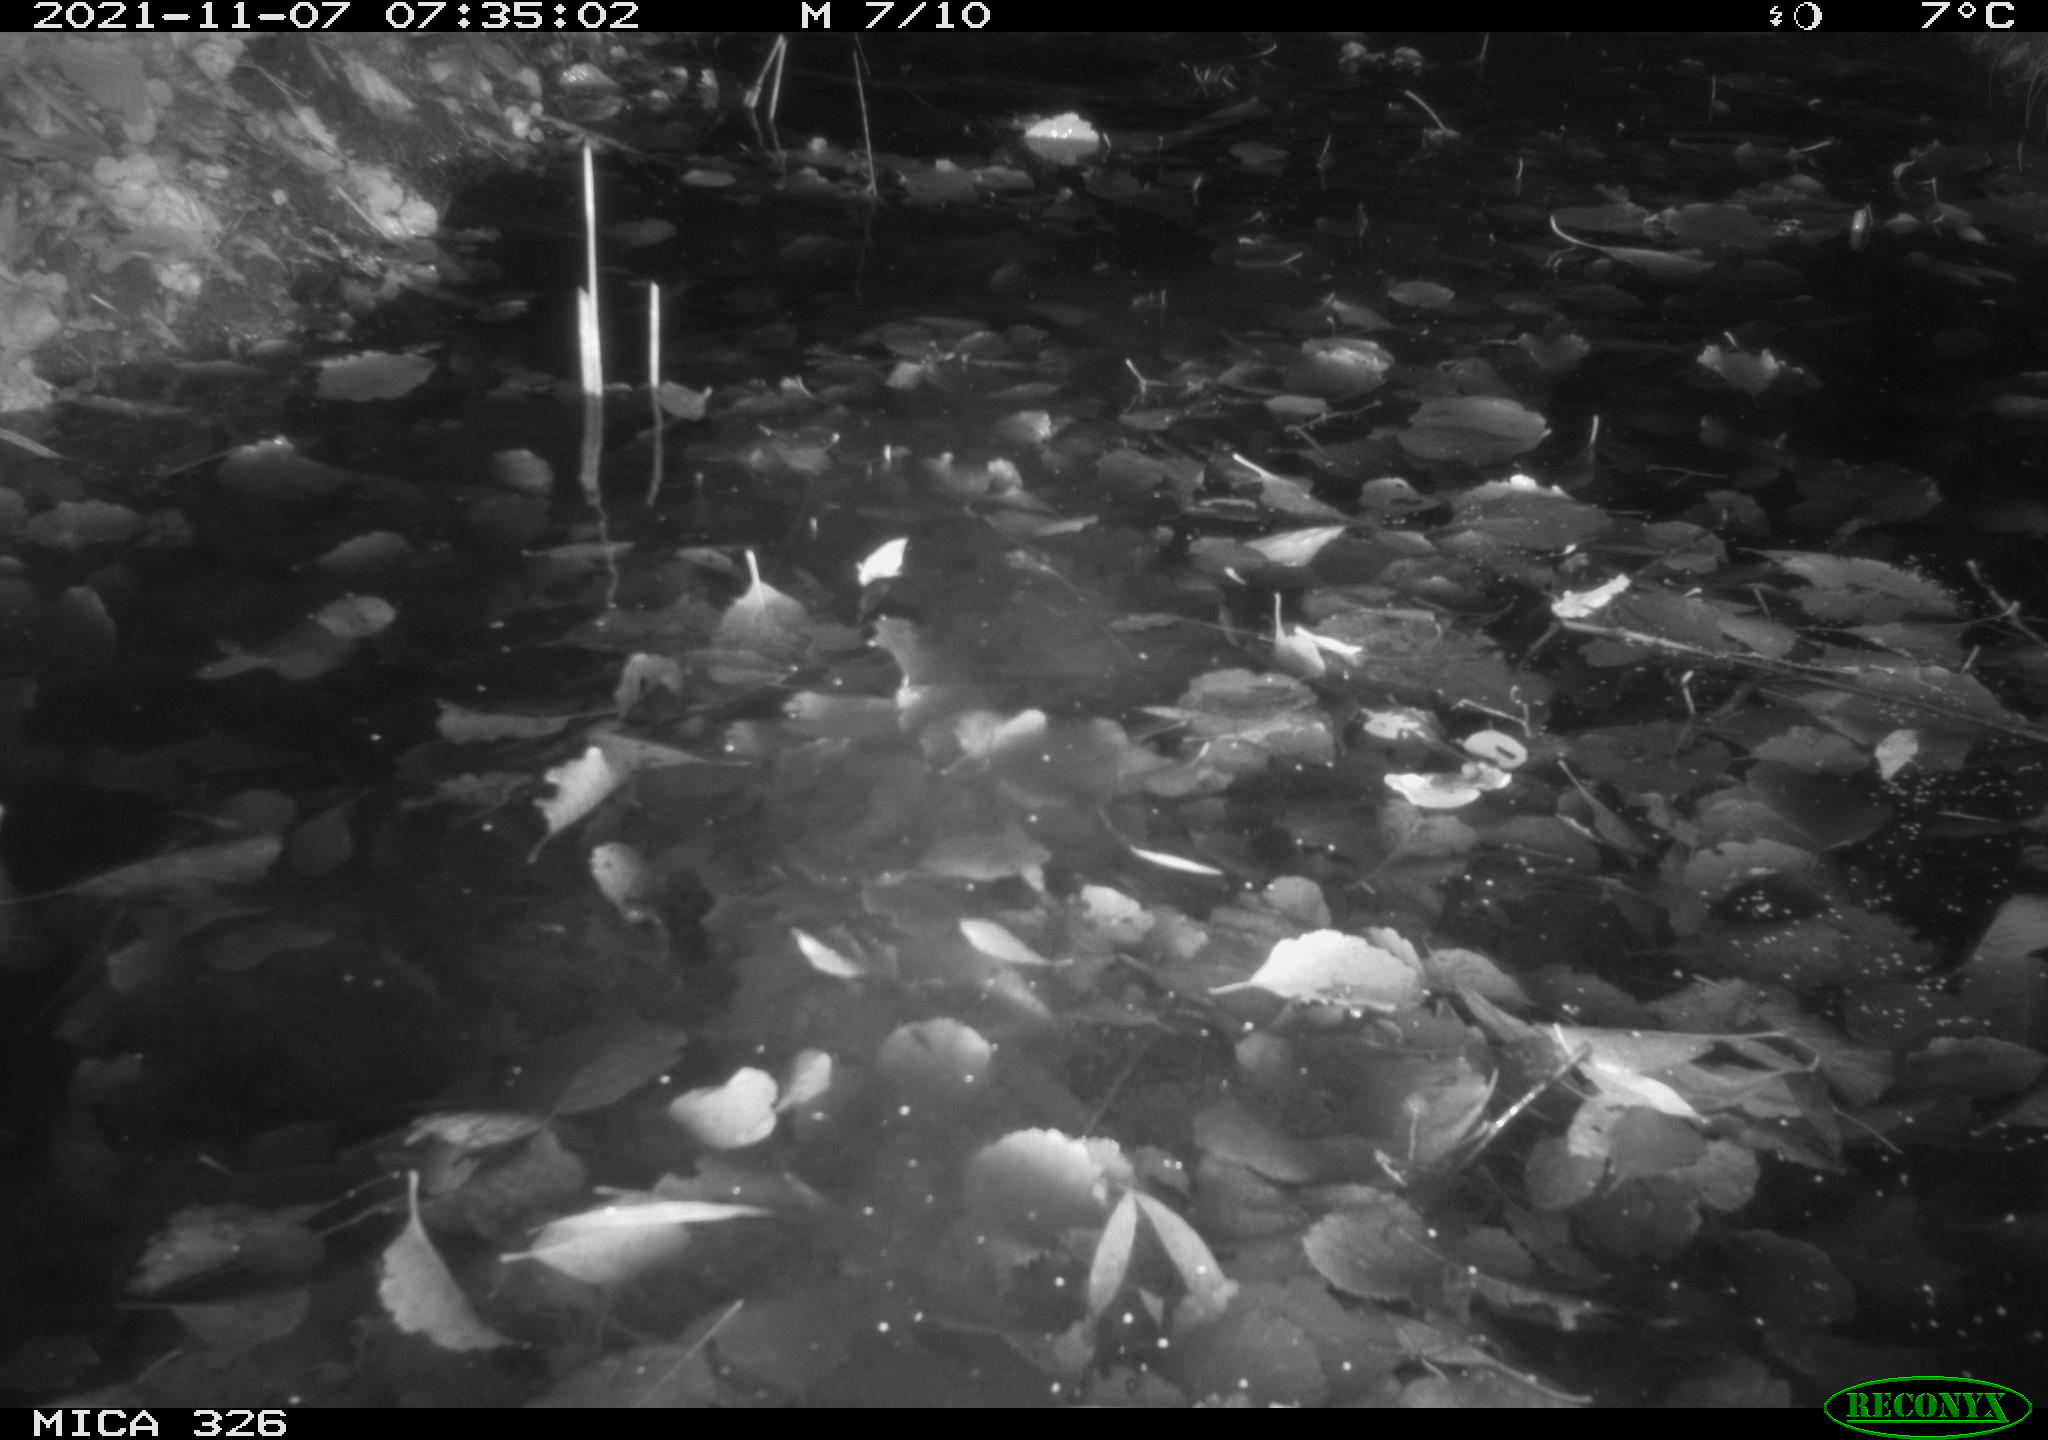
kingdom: Animalia
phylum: Chordata
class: Mammalia
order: Rodentia
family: Myocastoridae
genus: Myocastor
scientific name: Myocastor coypus
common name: Coypu
